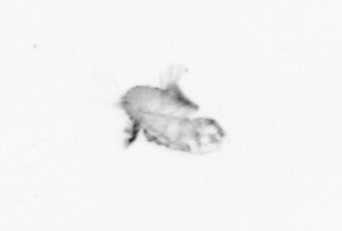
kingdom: Animalia
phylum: Arthropoda
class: Copepoda
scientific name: Copepoda
